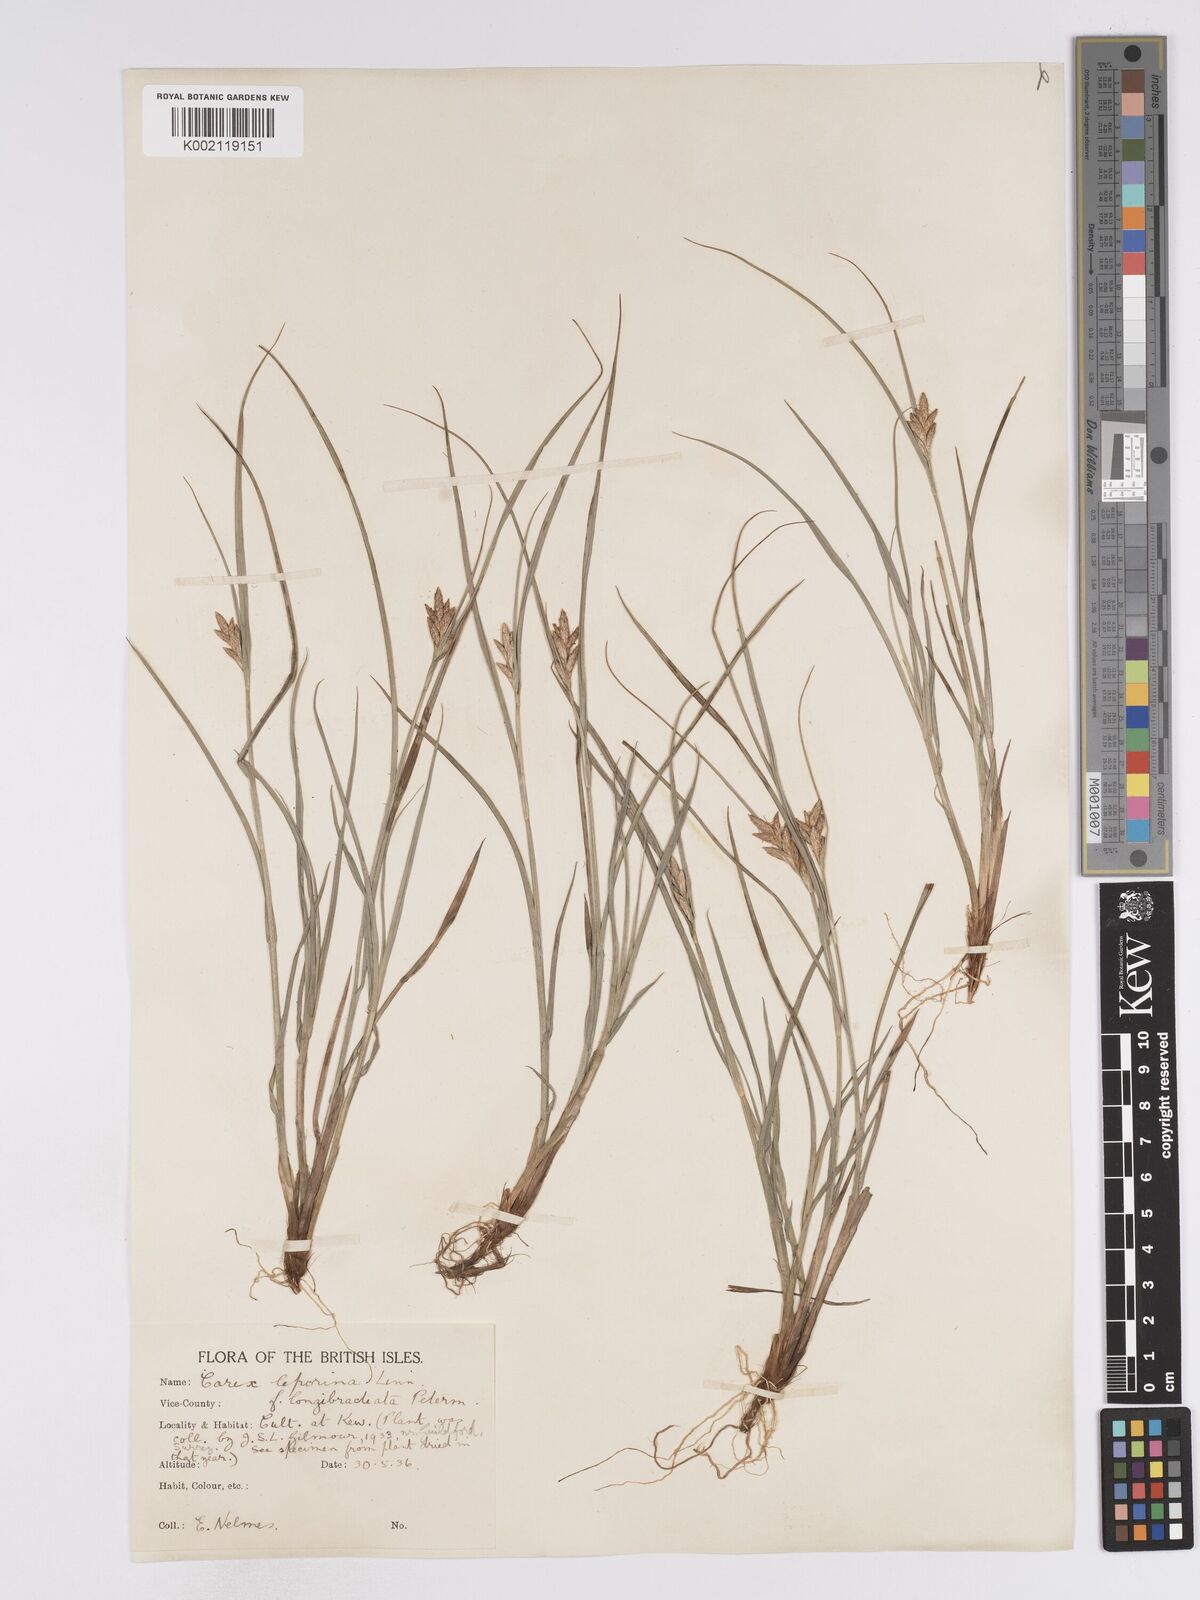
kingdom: Plantae
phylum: Tracheophyta
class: Liliopsida
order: Poales
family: Cyperaceae
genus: Carex
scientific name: Carex leporina
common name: Oval sedge
